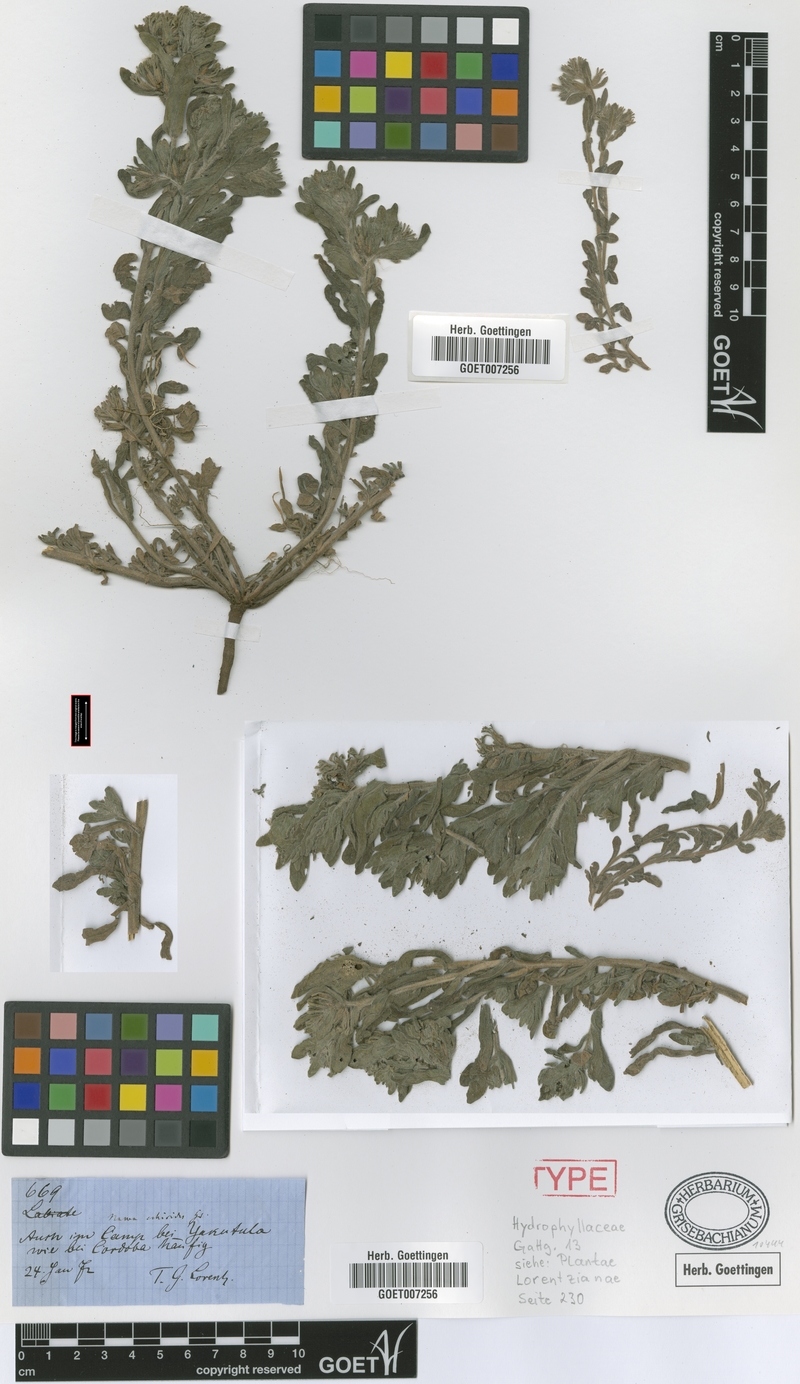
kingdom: Plantae
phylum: Tracheophyta
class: Magnoliopsida
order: Boraginales
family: Namaceae
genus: Nama
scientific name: Nama undulata
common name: Whitewhisker fiddleleaf
